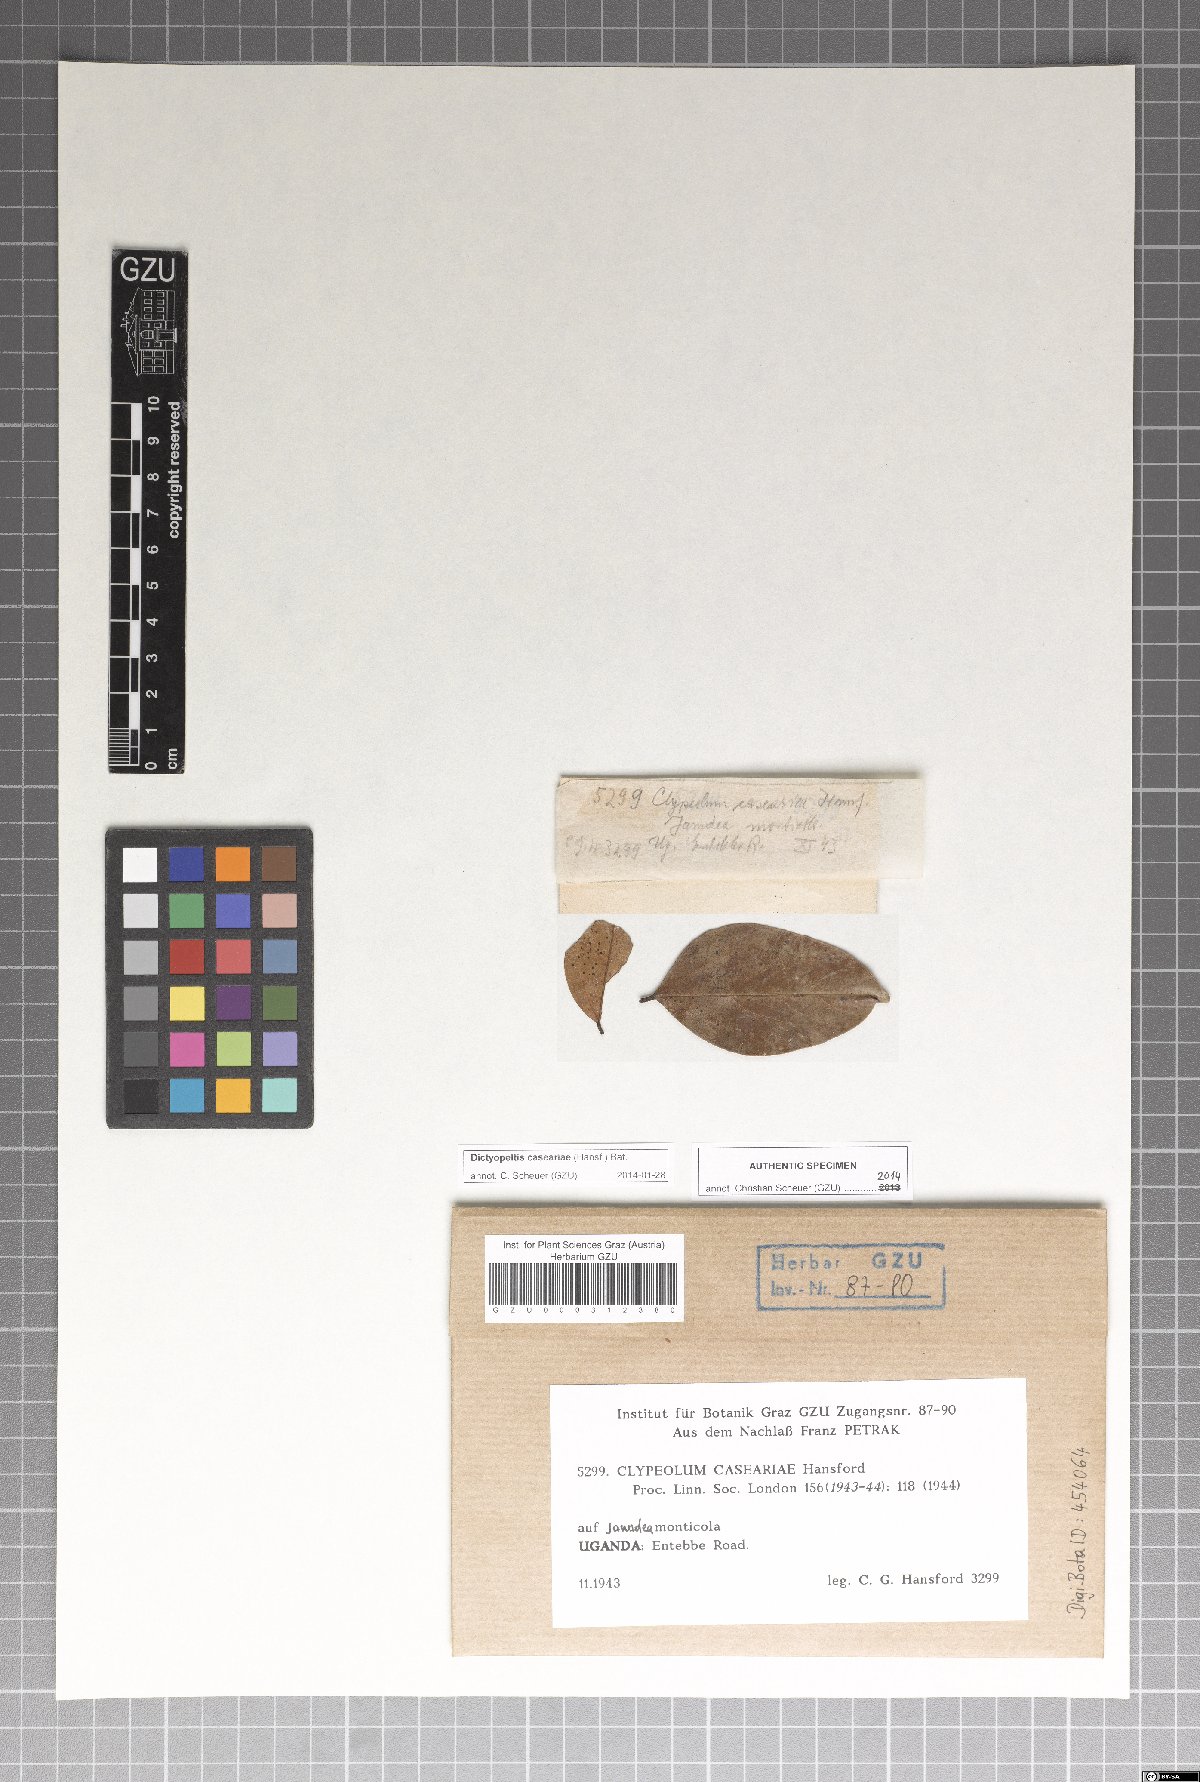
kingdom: Fungi
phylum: Ascomycota
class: Dothideomycetes
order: Microthyriales
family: Micropeltidaceae
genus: Dictyopeltis
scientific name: Dictyopeltis caseariae
